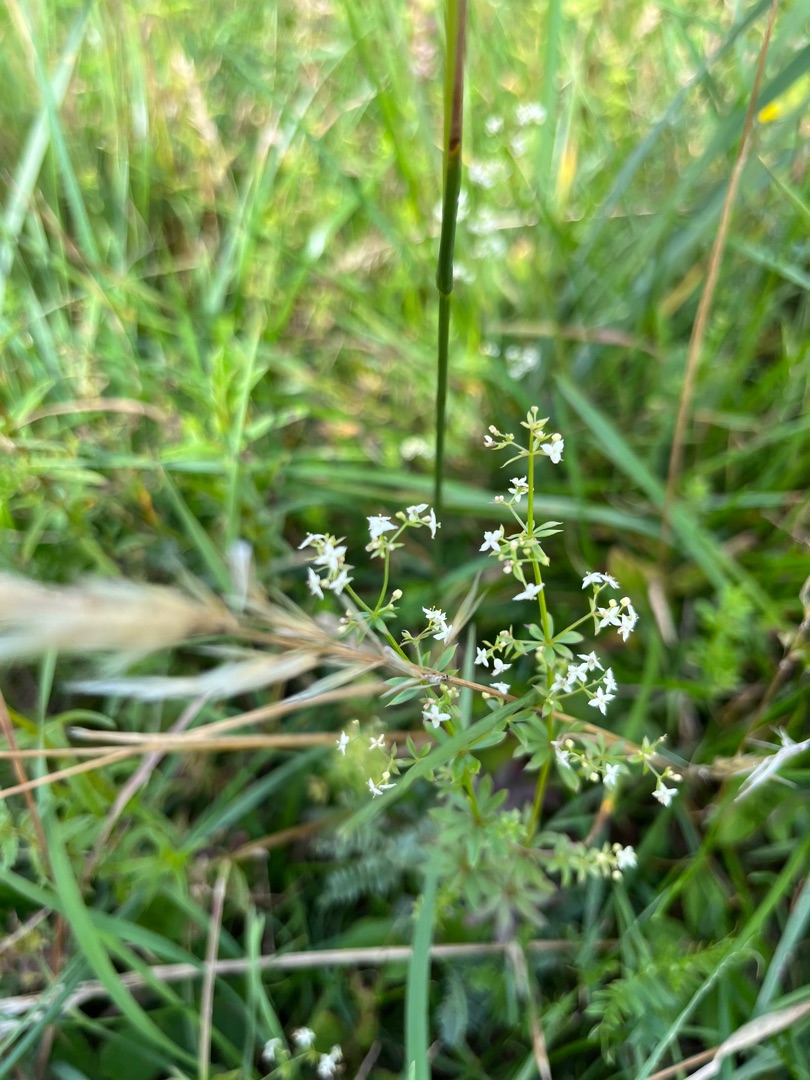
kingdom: Plantae
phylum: Tracheophyta
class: Magnoliopsida
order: Gentianales
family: Rubiaceae
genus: Galium
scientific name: Galium mollugo
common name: Hvid snerre
